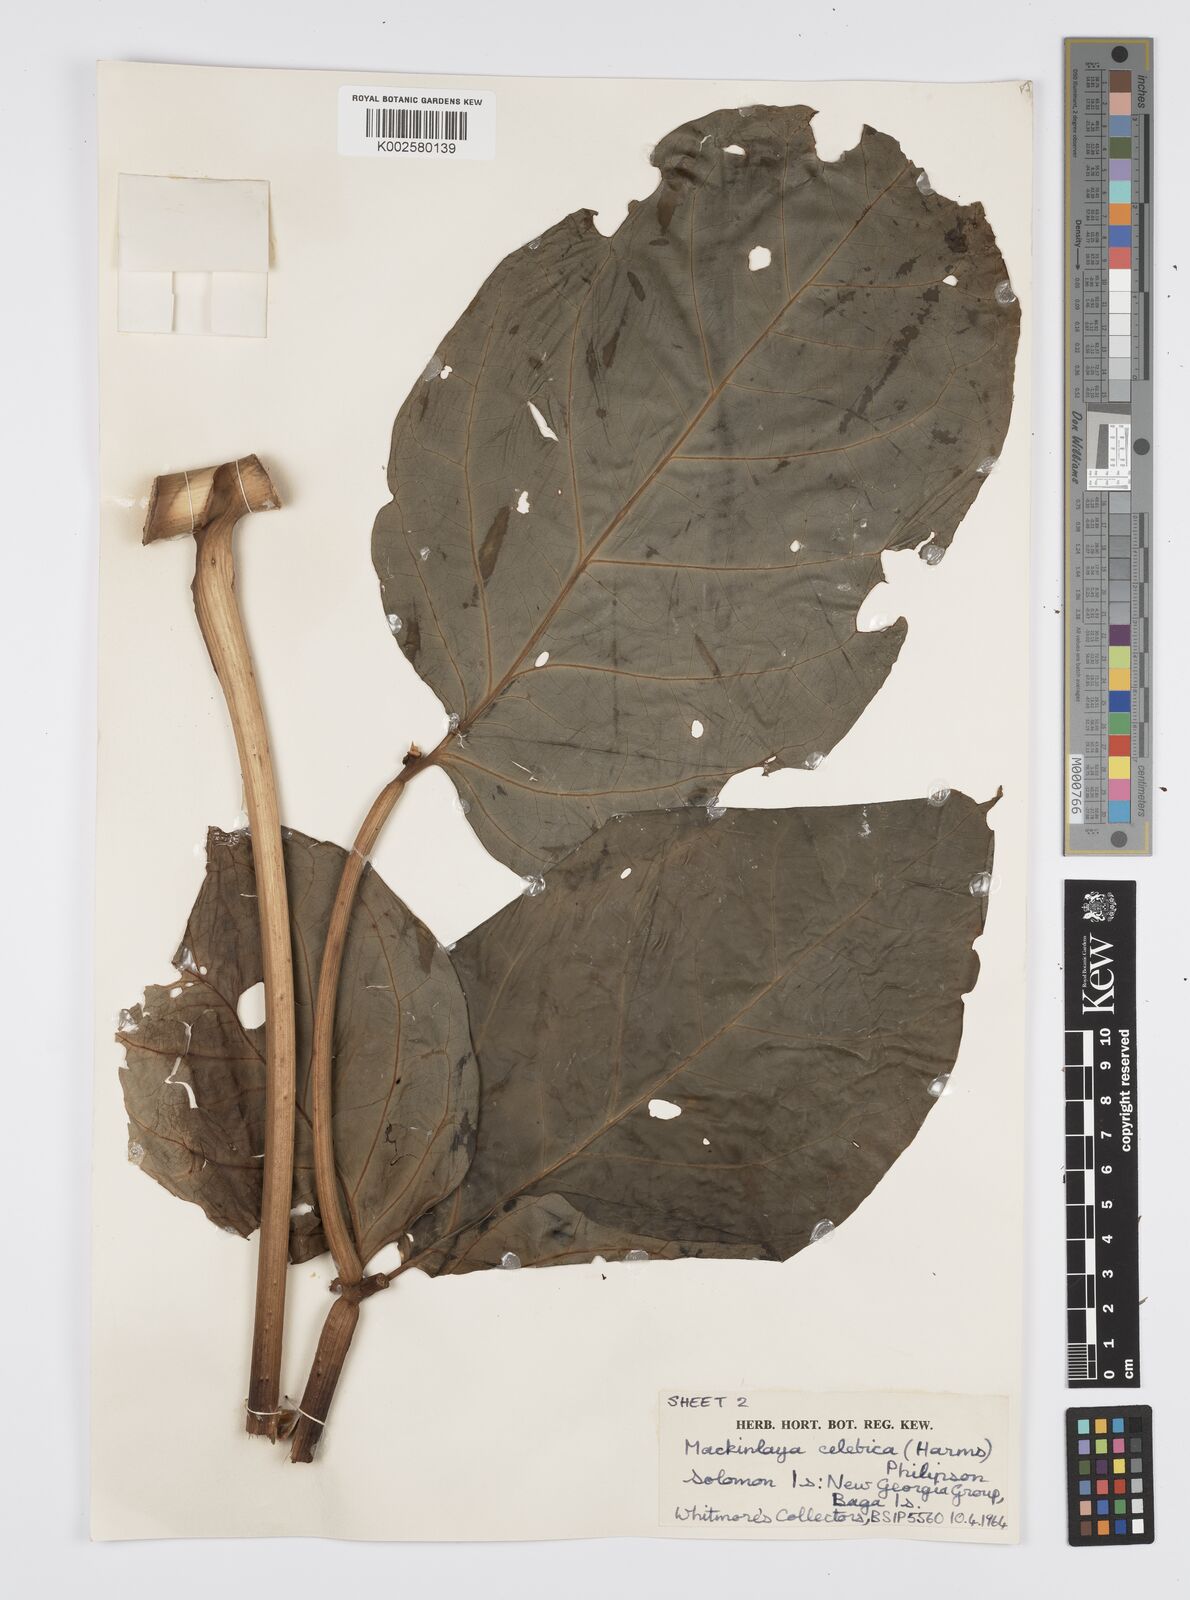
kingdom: Plantae
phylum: Tracheophyta
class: Magnoliopsida
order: Apiales
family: Apiaceae
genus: Mackinlaya
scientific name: Mackinlaya celebica
